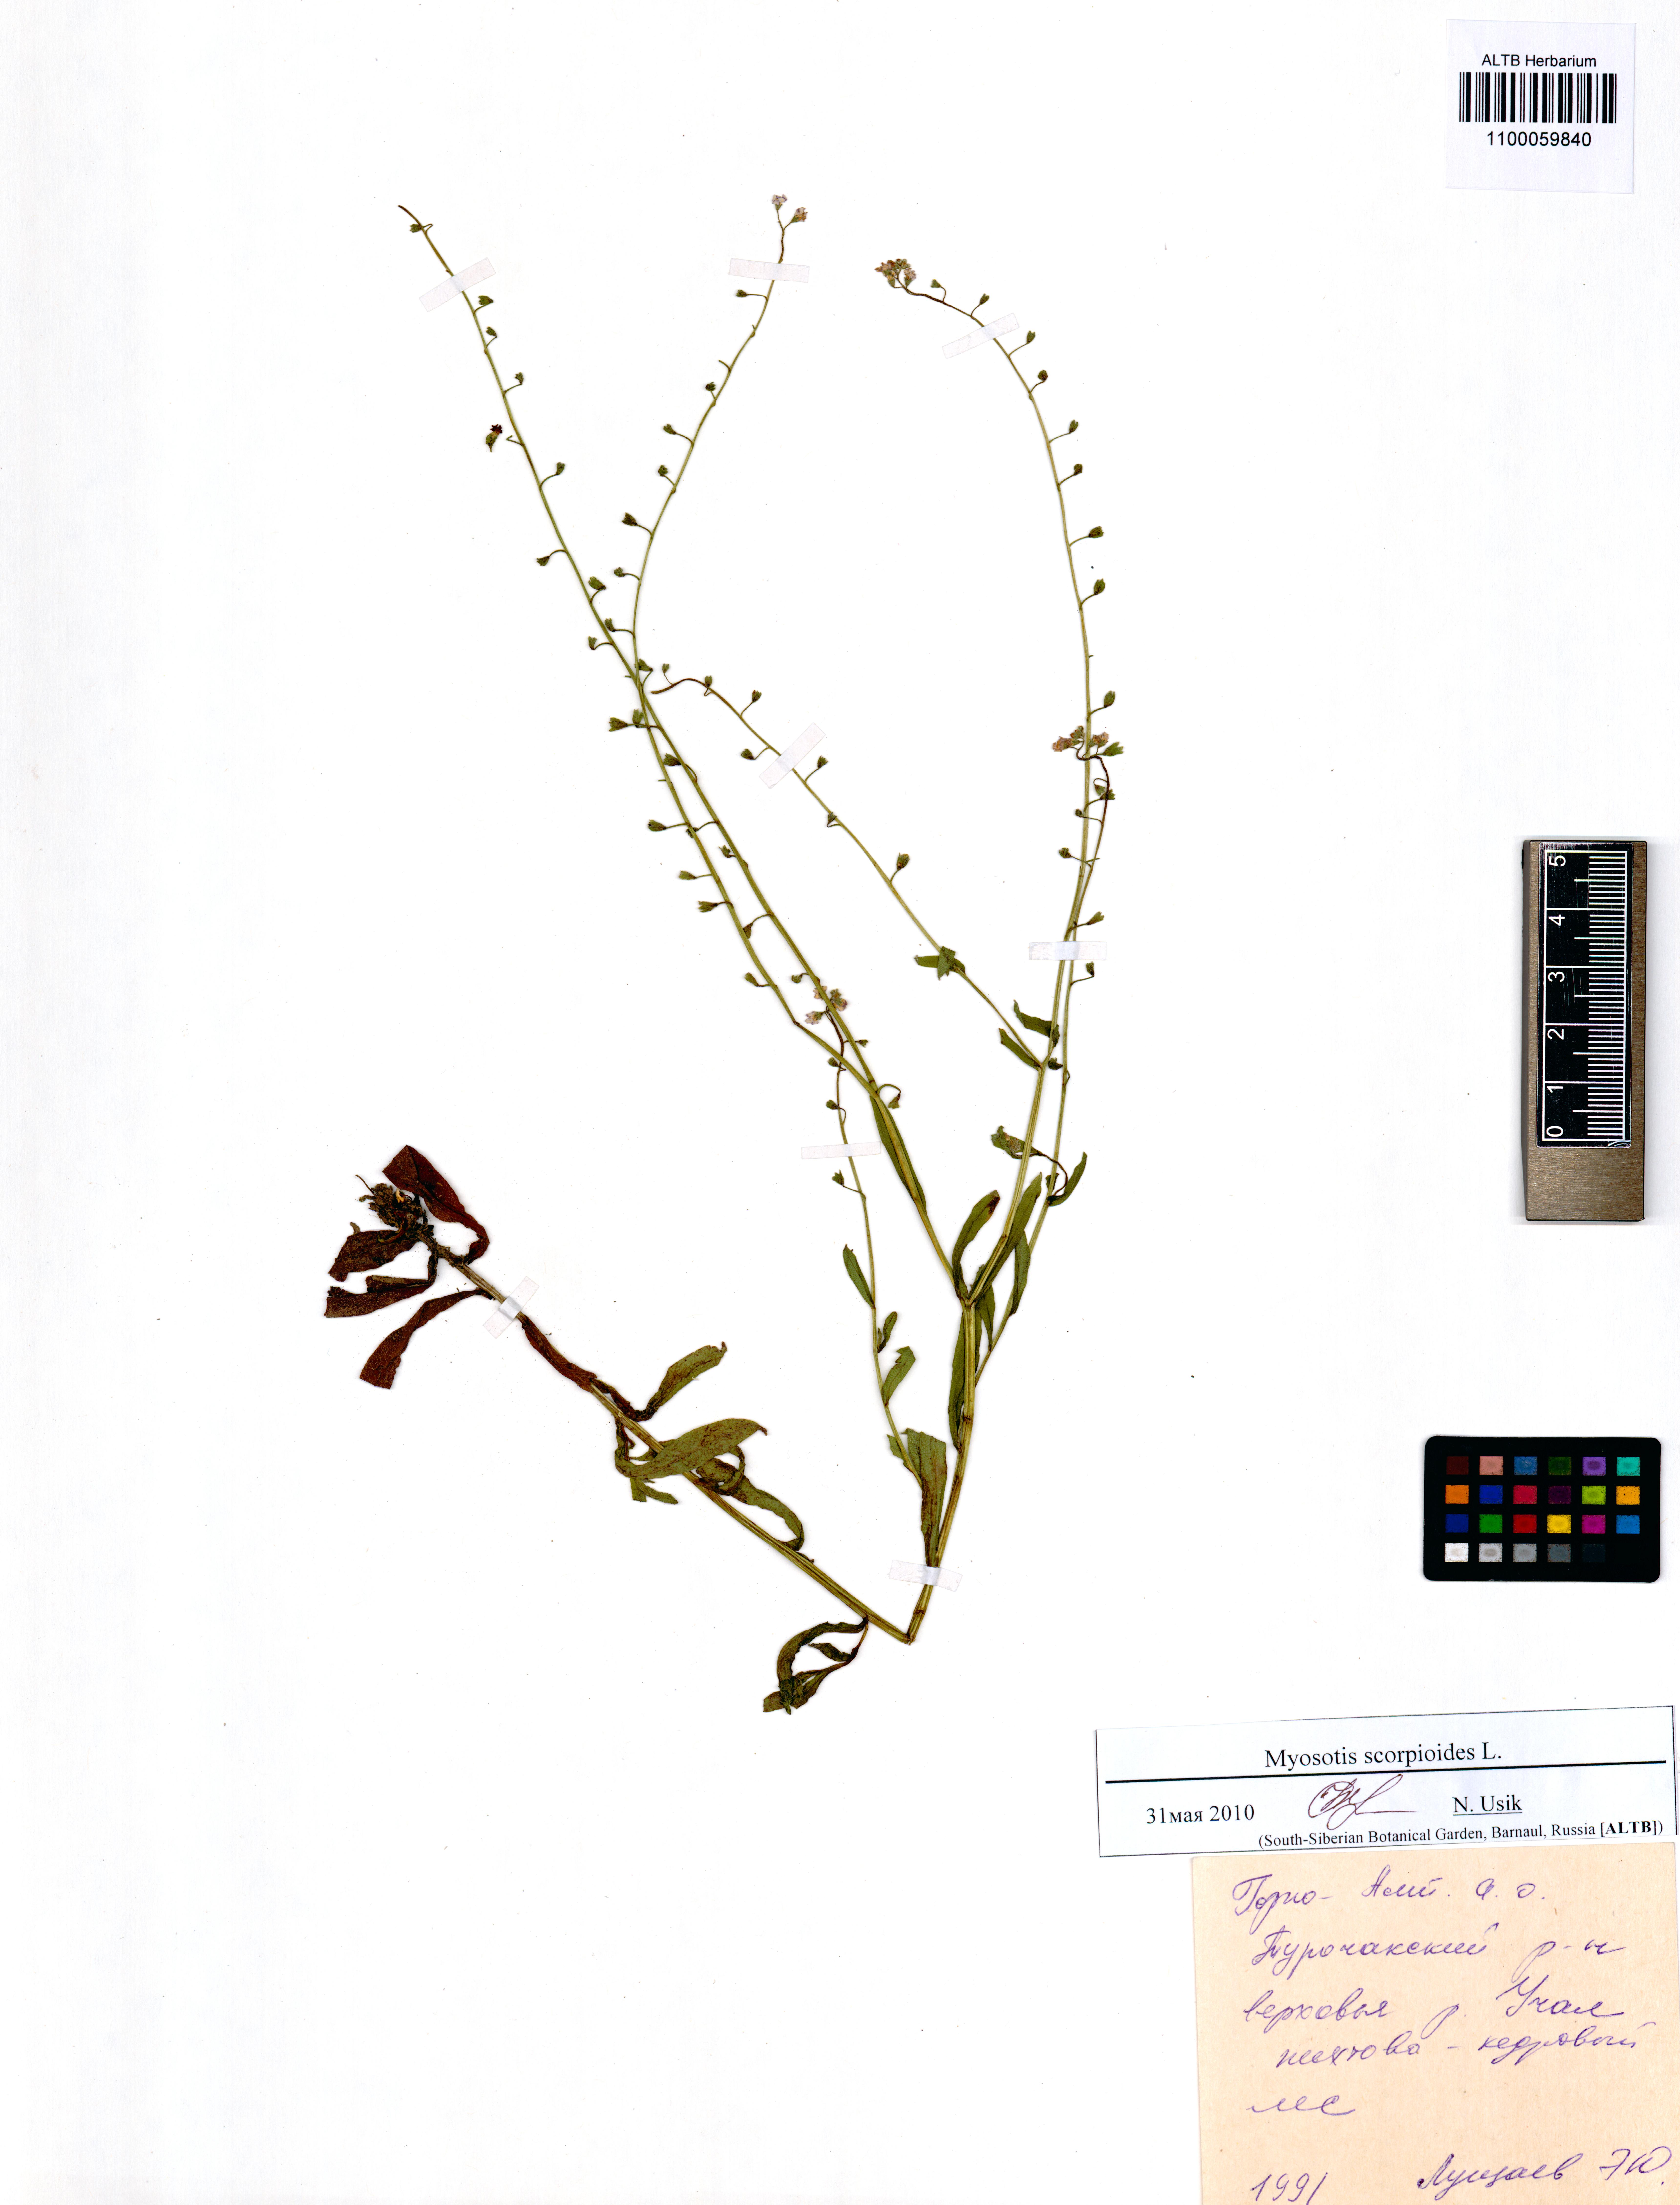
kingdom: Plantae
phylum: Tracheophyta
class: Magnoliopsida
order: Boraginales
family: Boraginaceae
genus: Myosotis
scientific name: Myosotis scorpioides
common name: Water forget-me-not
